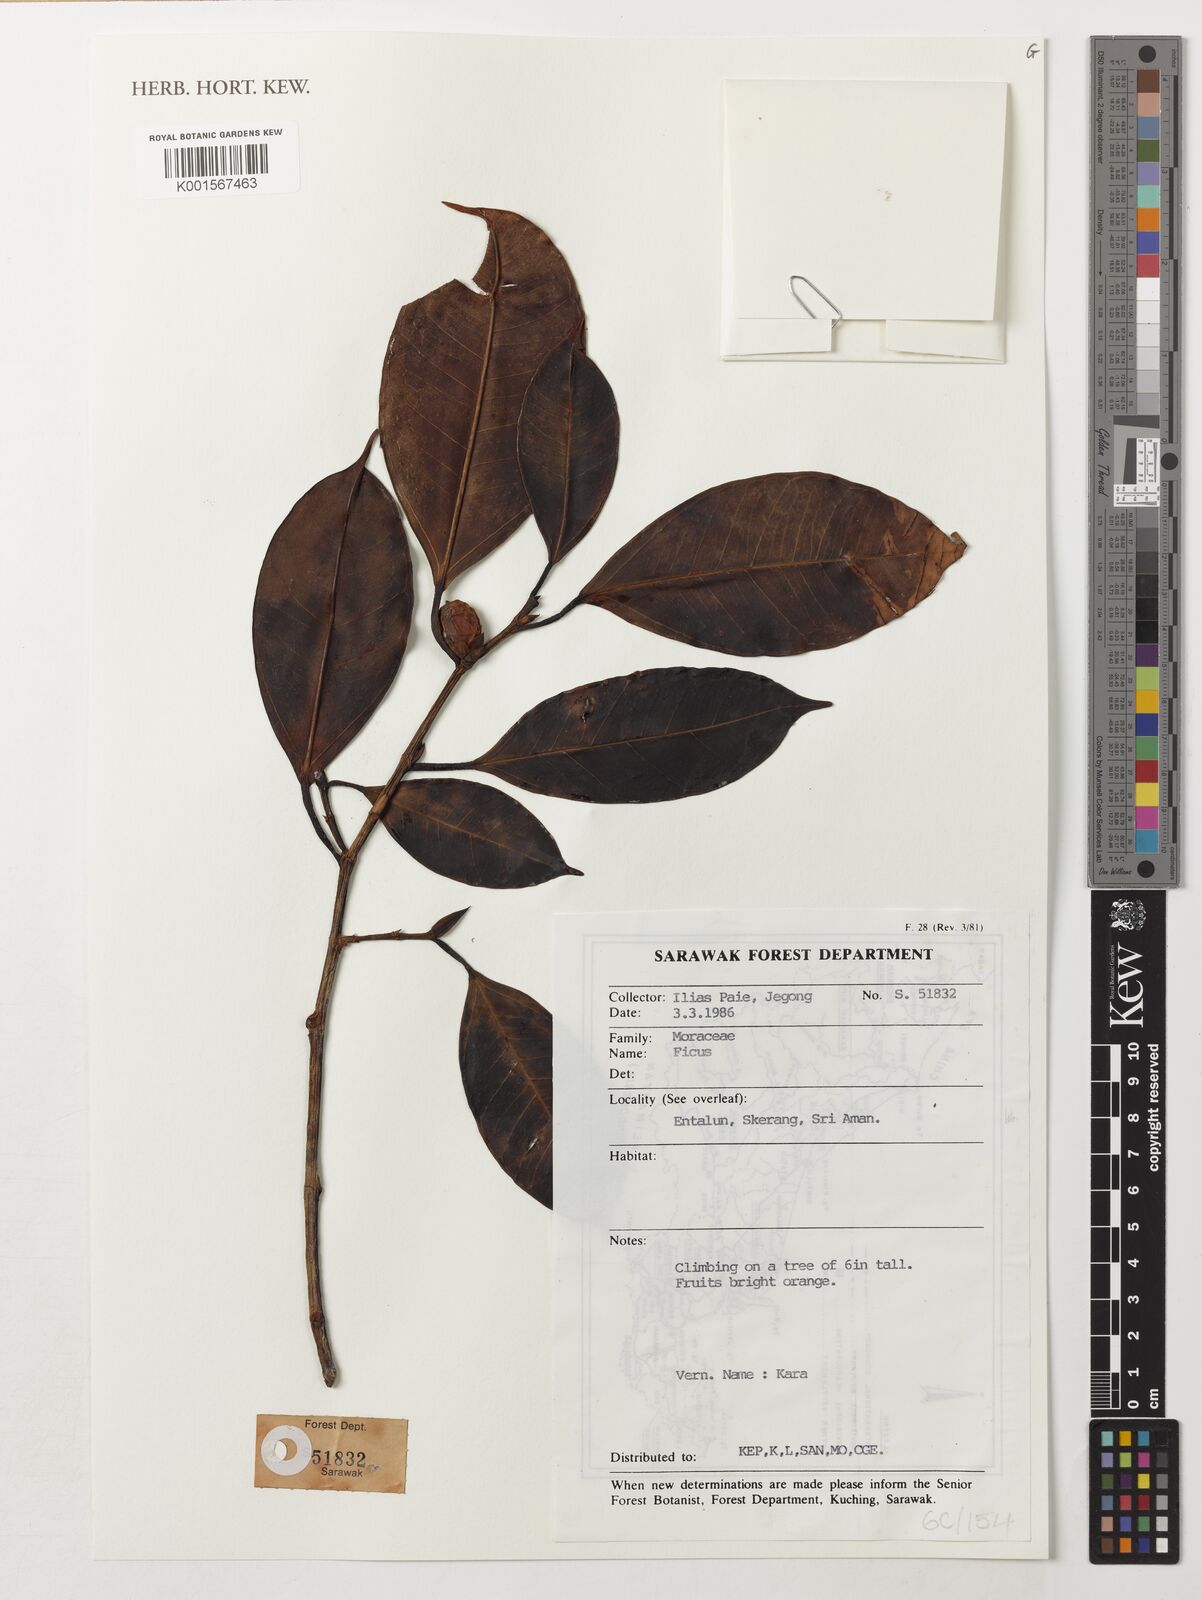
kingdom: Plantae
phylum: Tracheophyta
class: Magnoliopsida
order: Rosales
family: Moraceae
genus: Ficus
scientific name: Ficus
